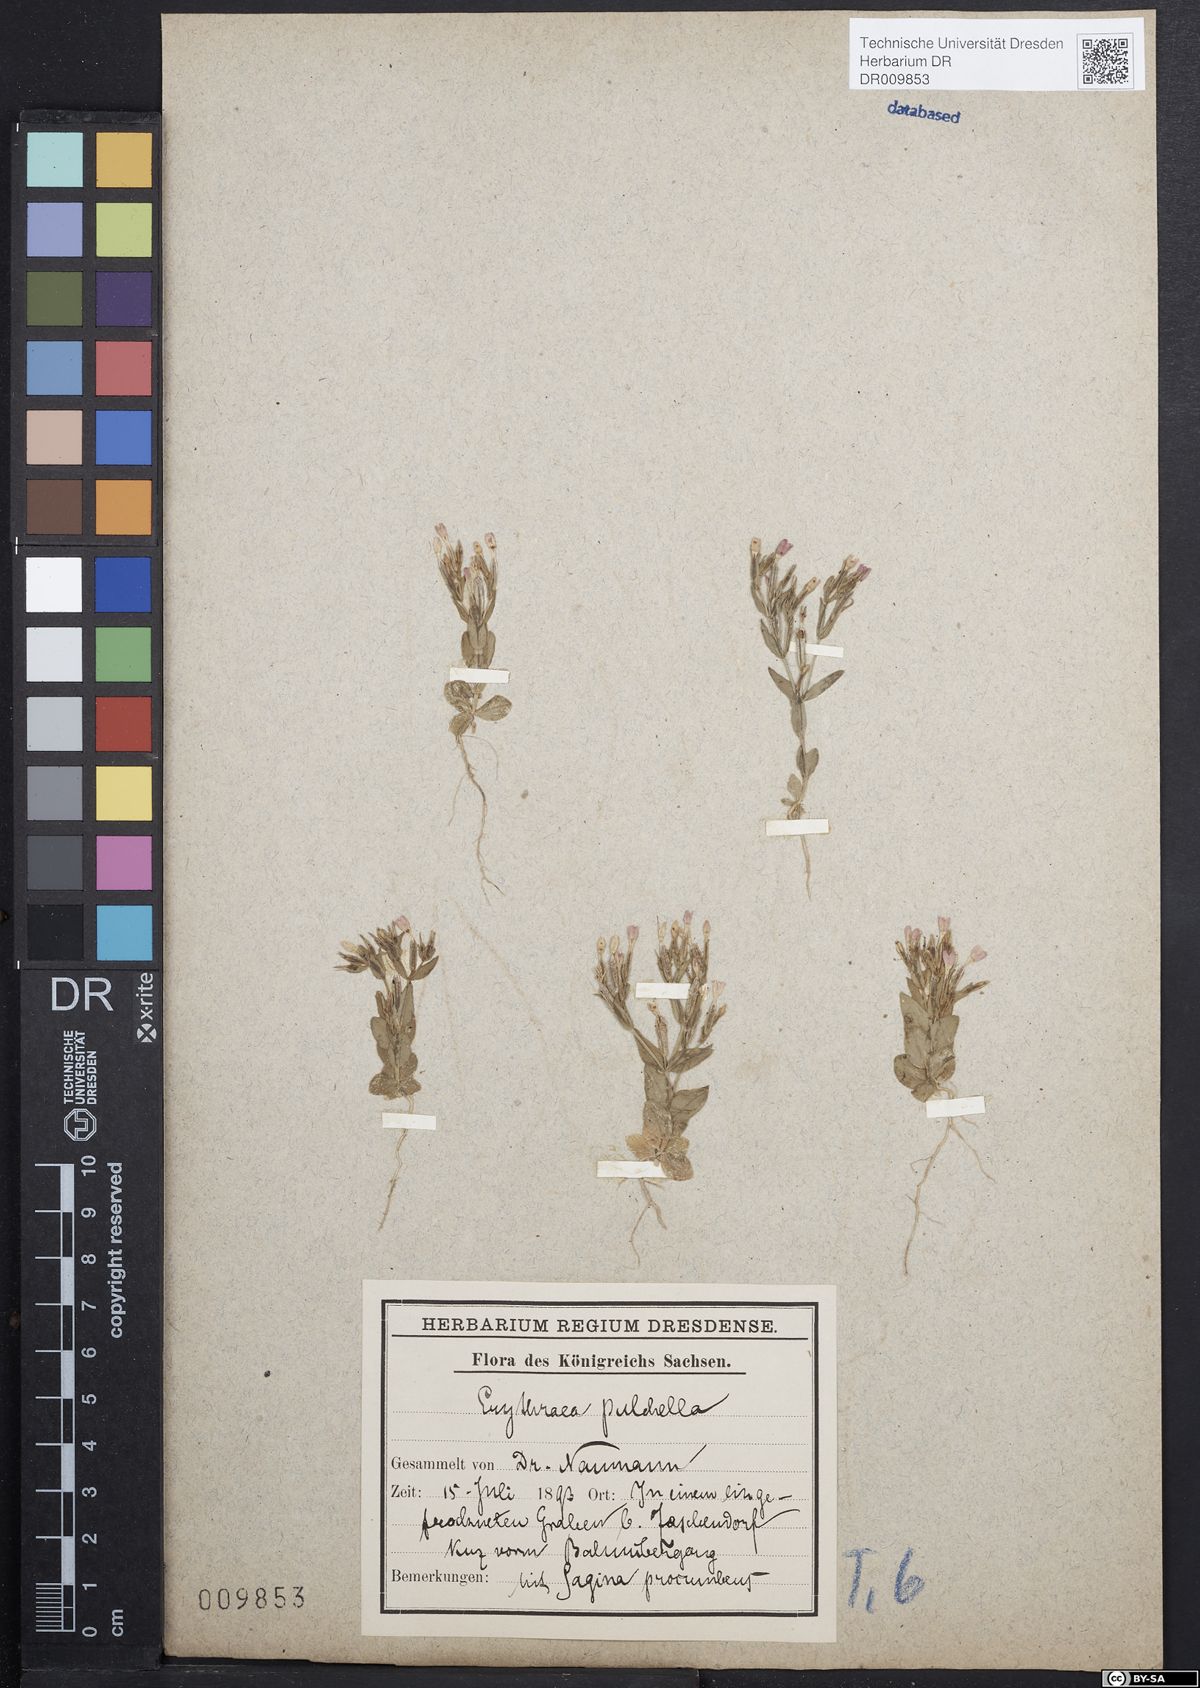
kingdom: Plantae
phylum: Tracheophyta
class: Magnoliopsida
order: Gentianales
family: Gentianaceae
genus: Centaurium
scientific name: Centaurium pulchellum
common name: Lesser centaury
